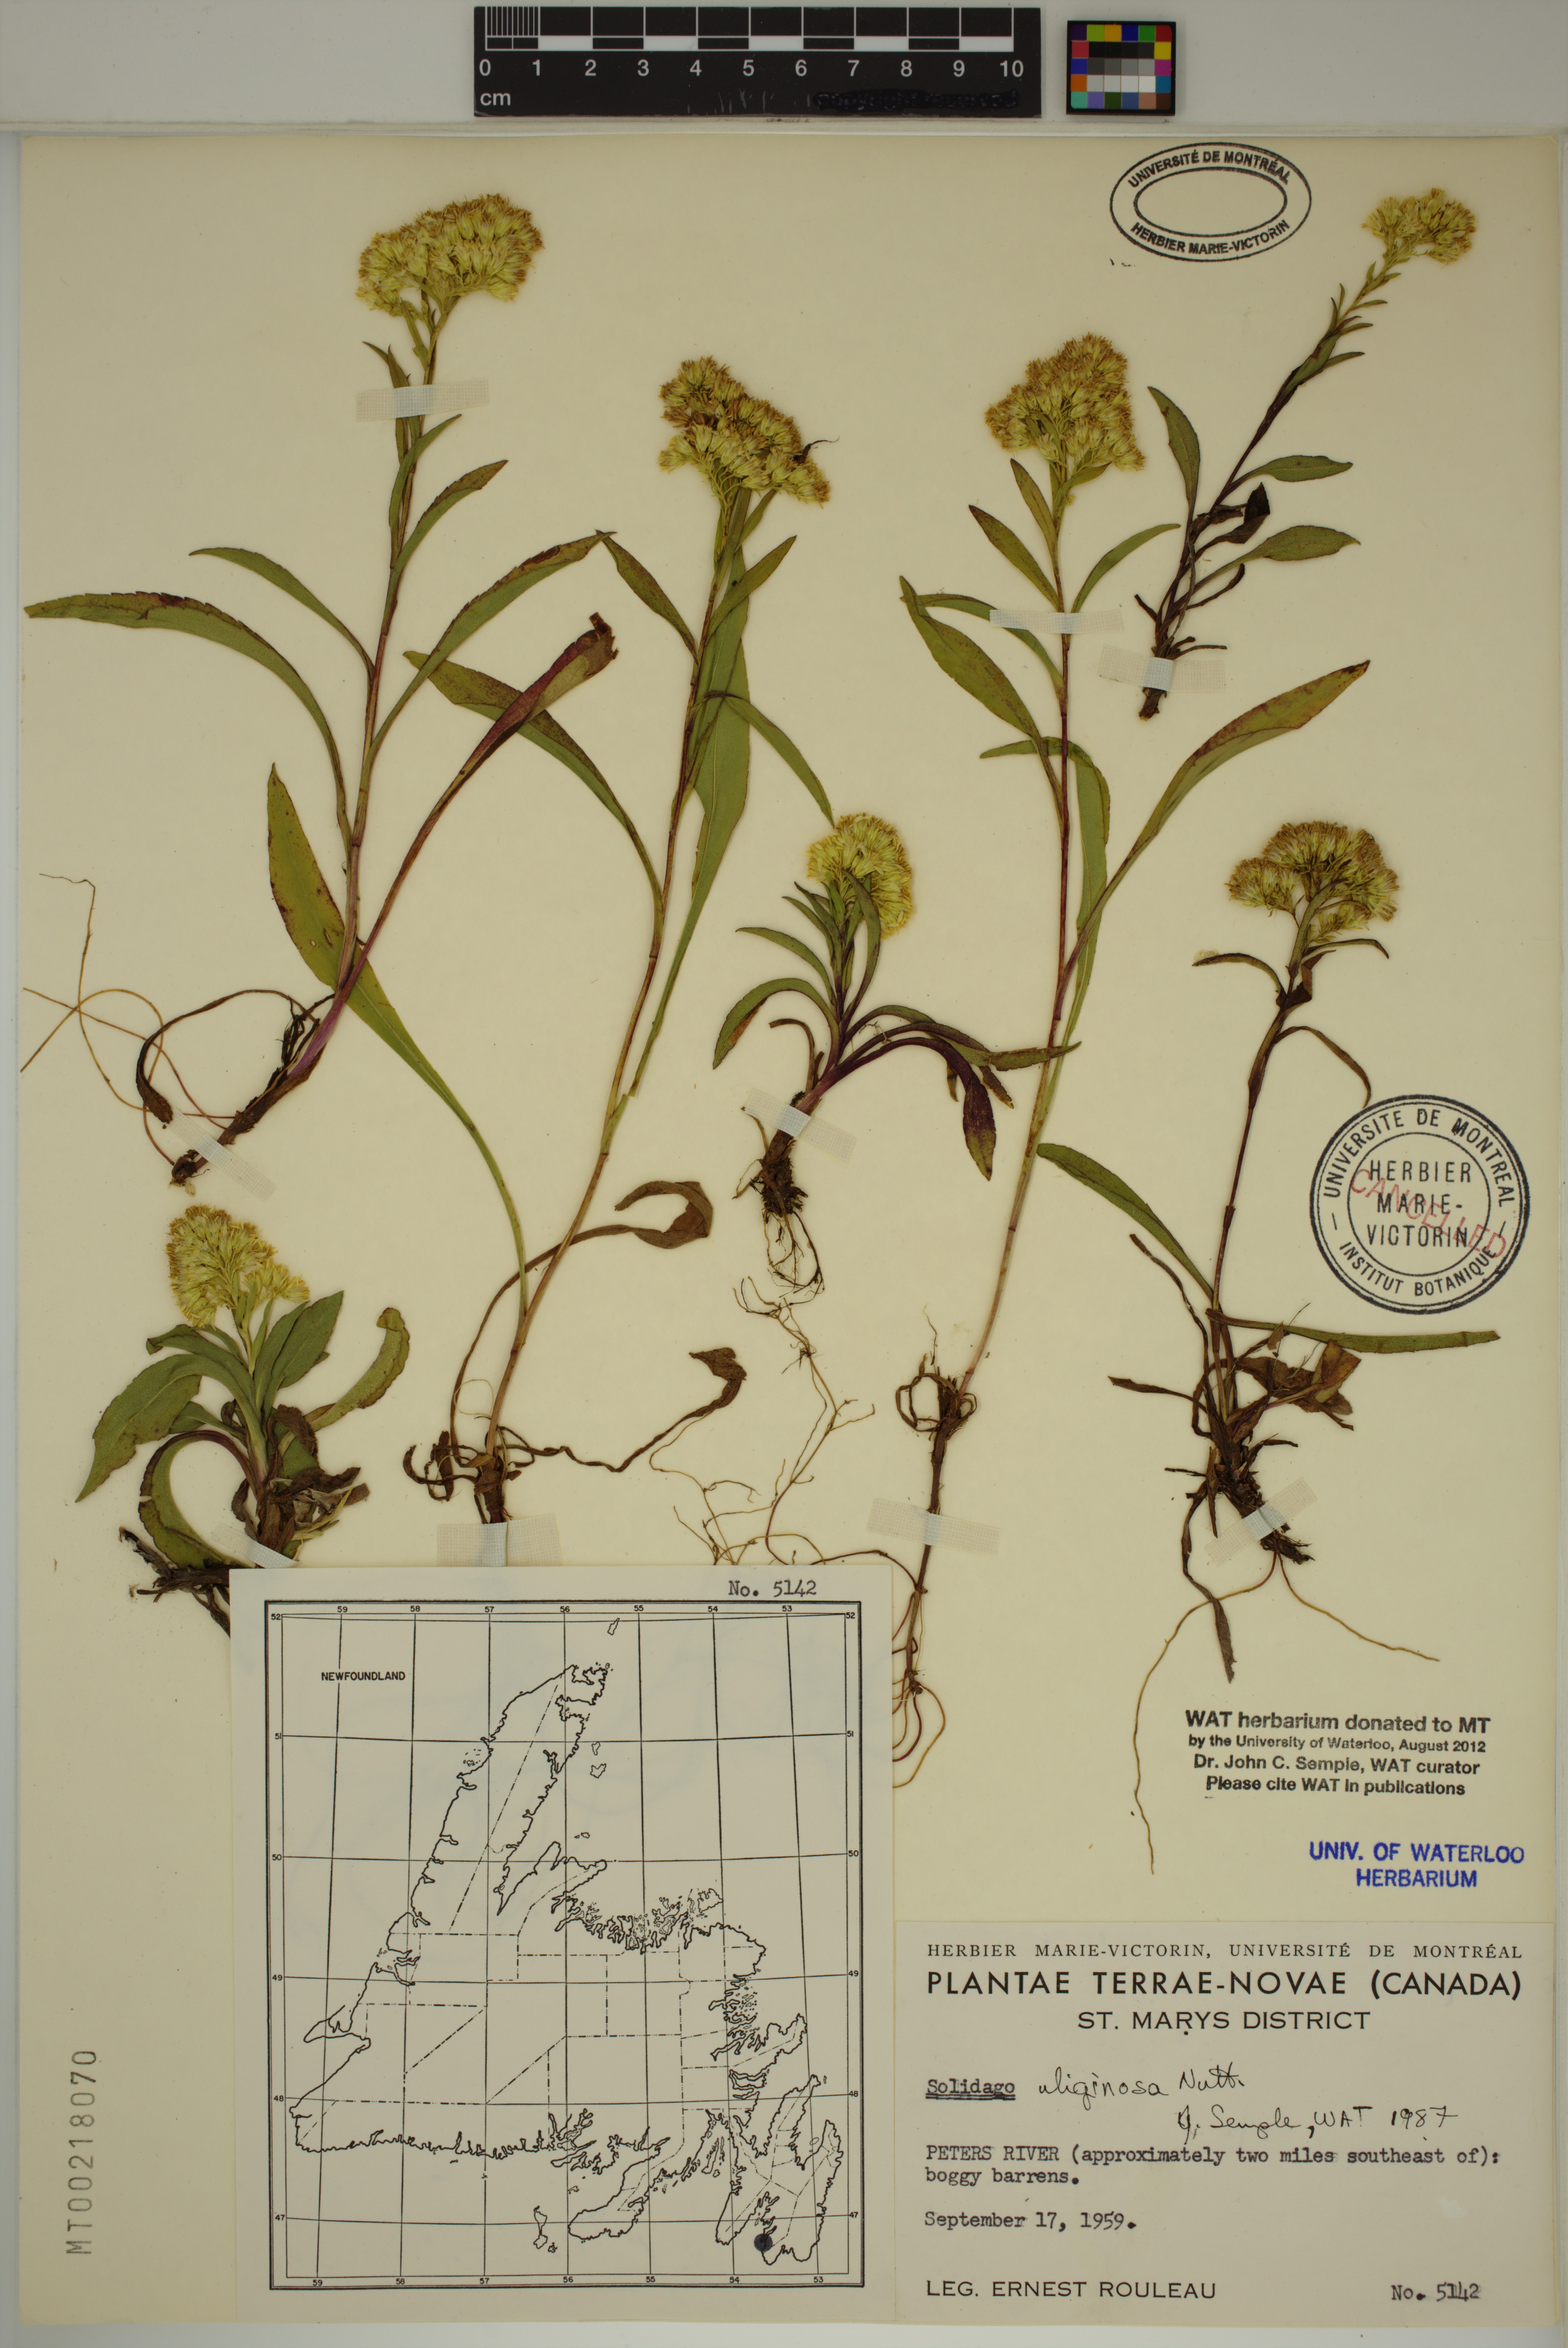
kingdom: Plantae
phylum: Tracheophyta
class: Magnoliopsida
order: Asterales
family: Asteraceae
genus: Solidago
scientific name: Solidago uliginosa
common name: Bog goldenrod
